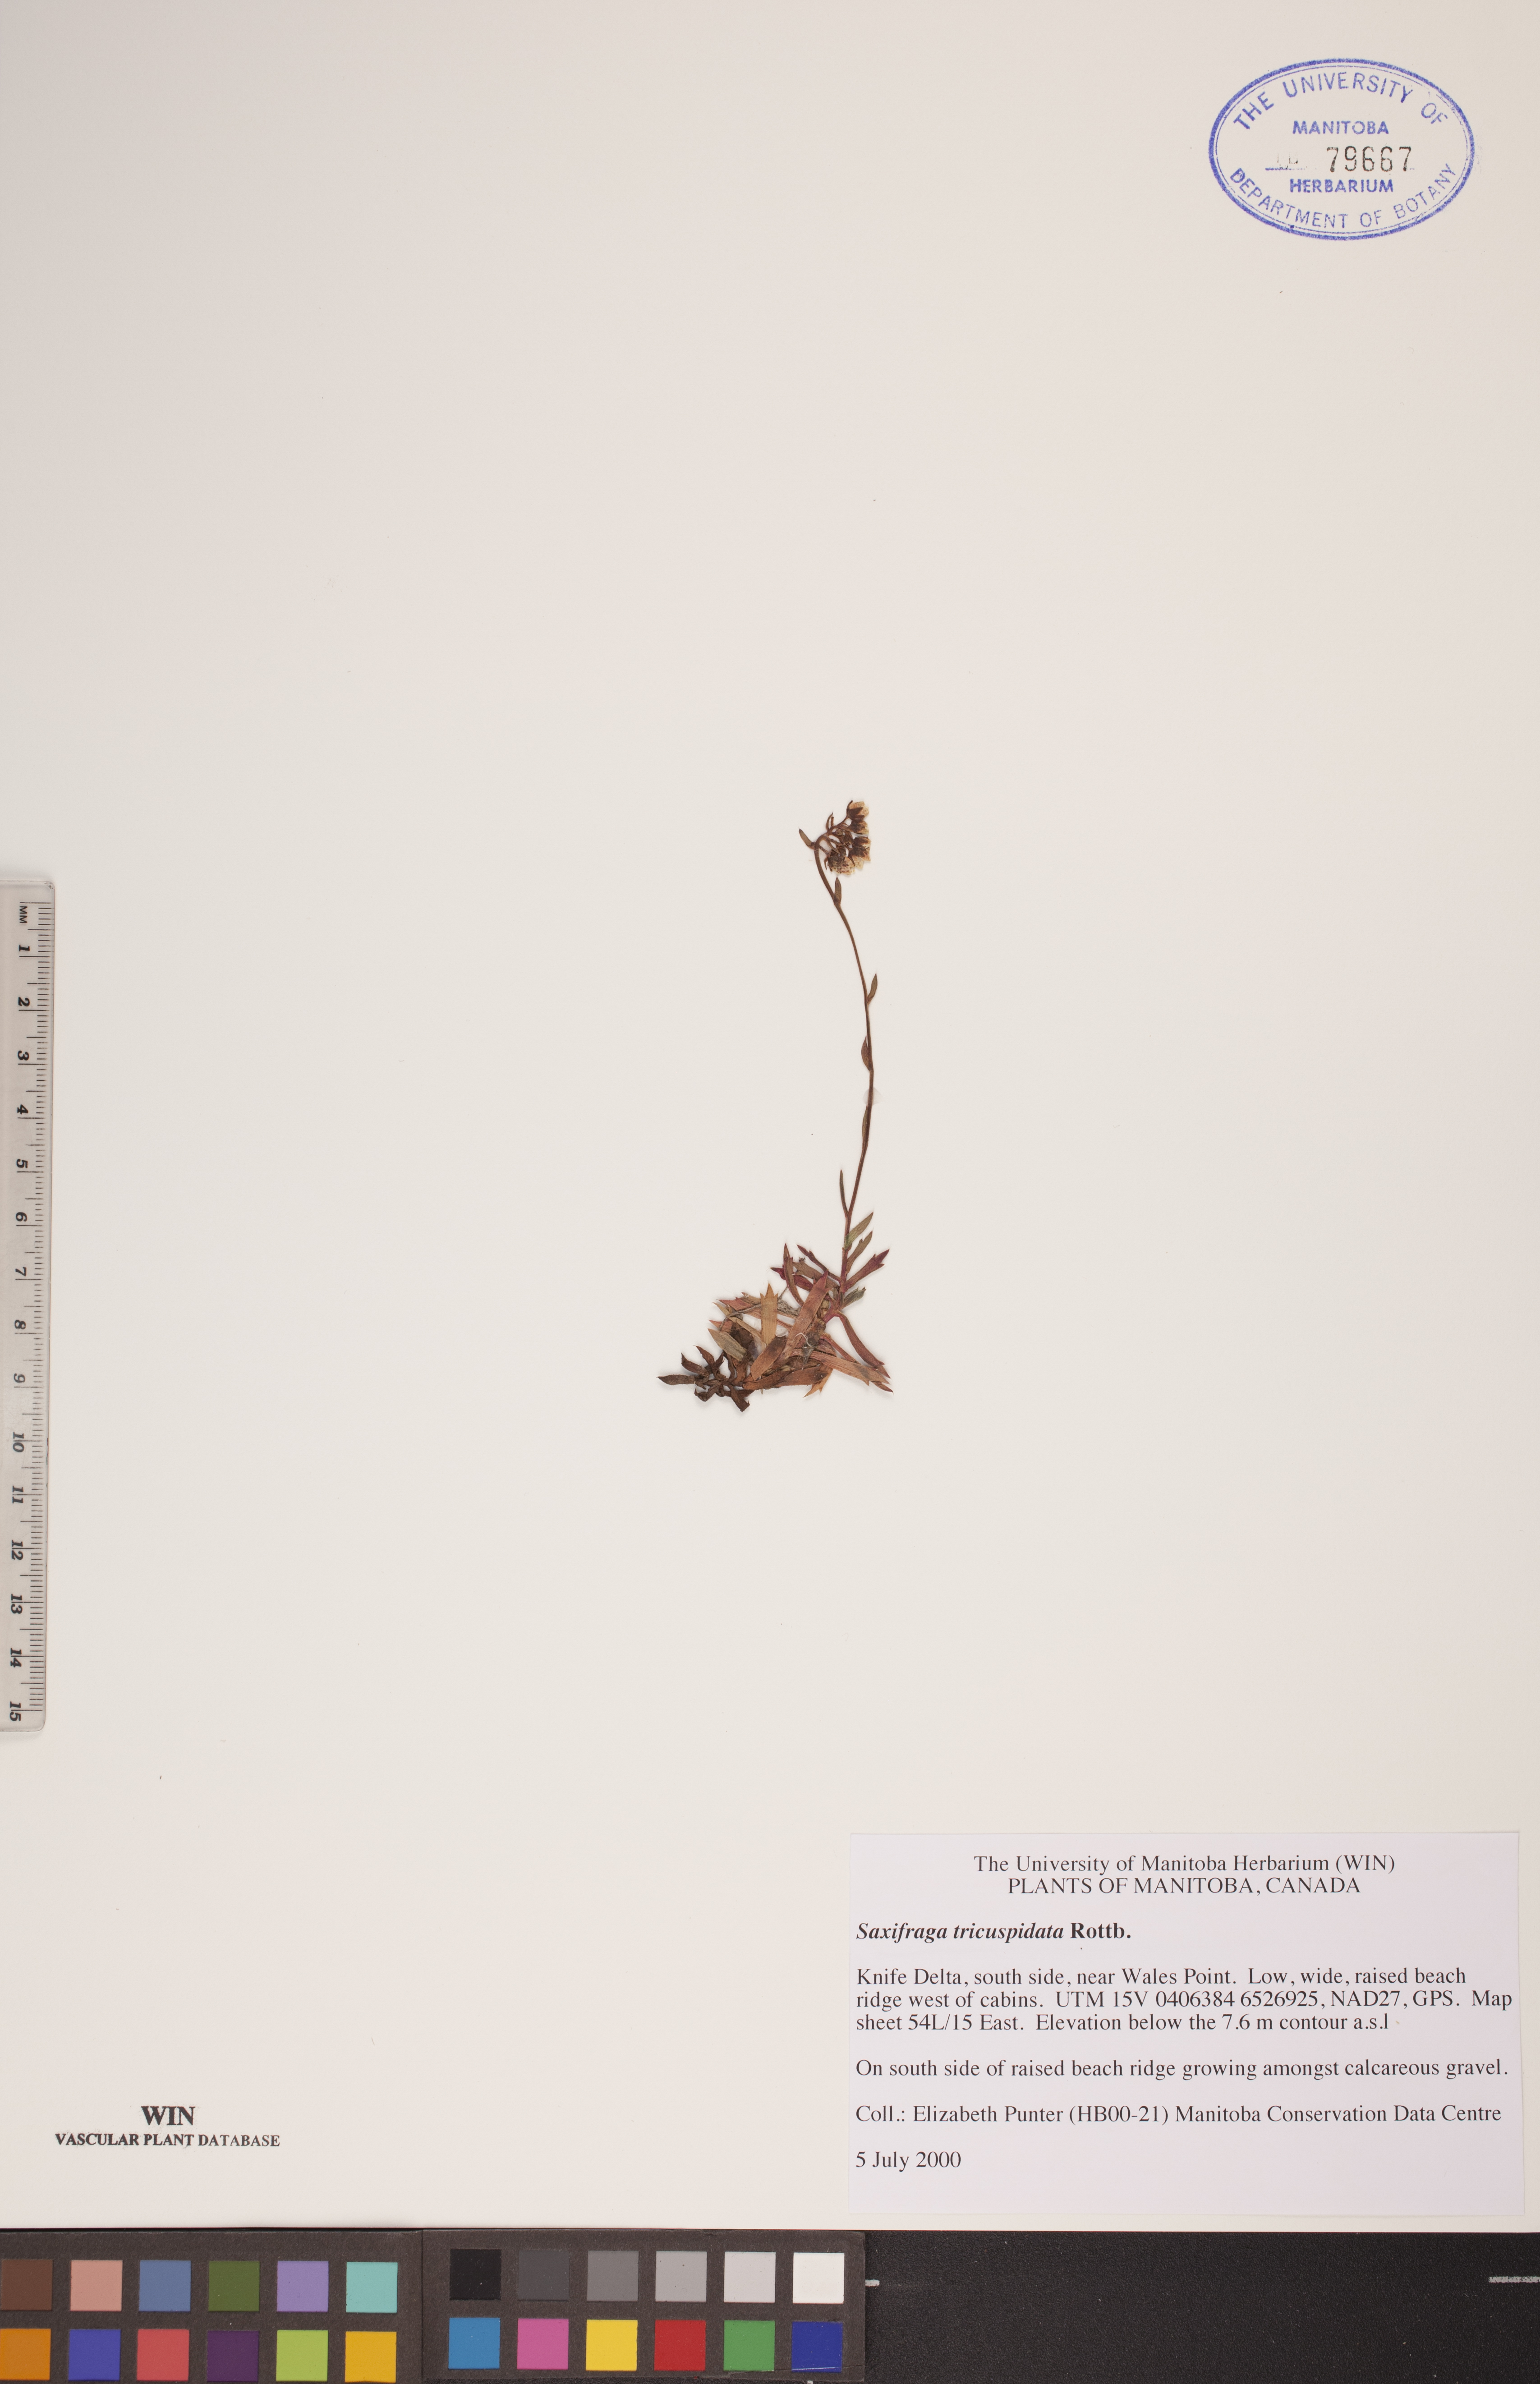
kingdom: Plantae
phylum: Tracheophyta
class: Magnoliopsida
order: Saxifragales
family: Saxifragaceae
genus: Saxifraga
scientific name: Saxifraga tricuspidata
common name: Prickly saxifrage
